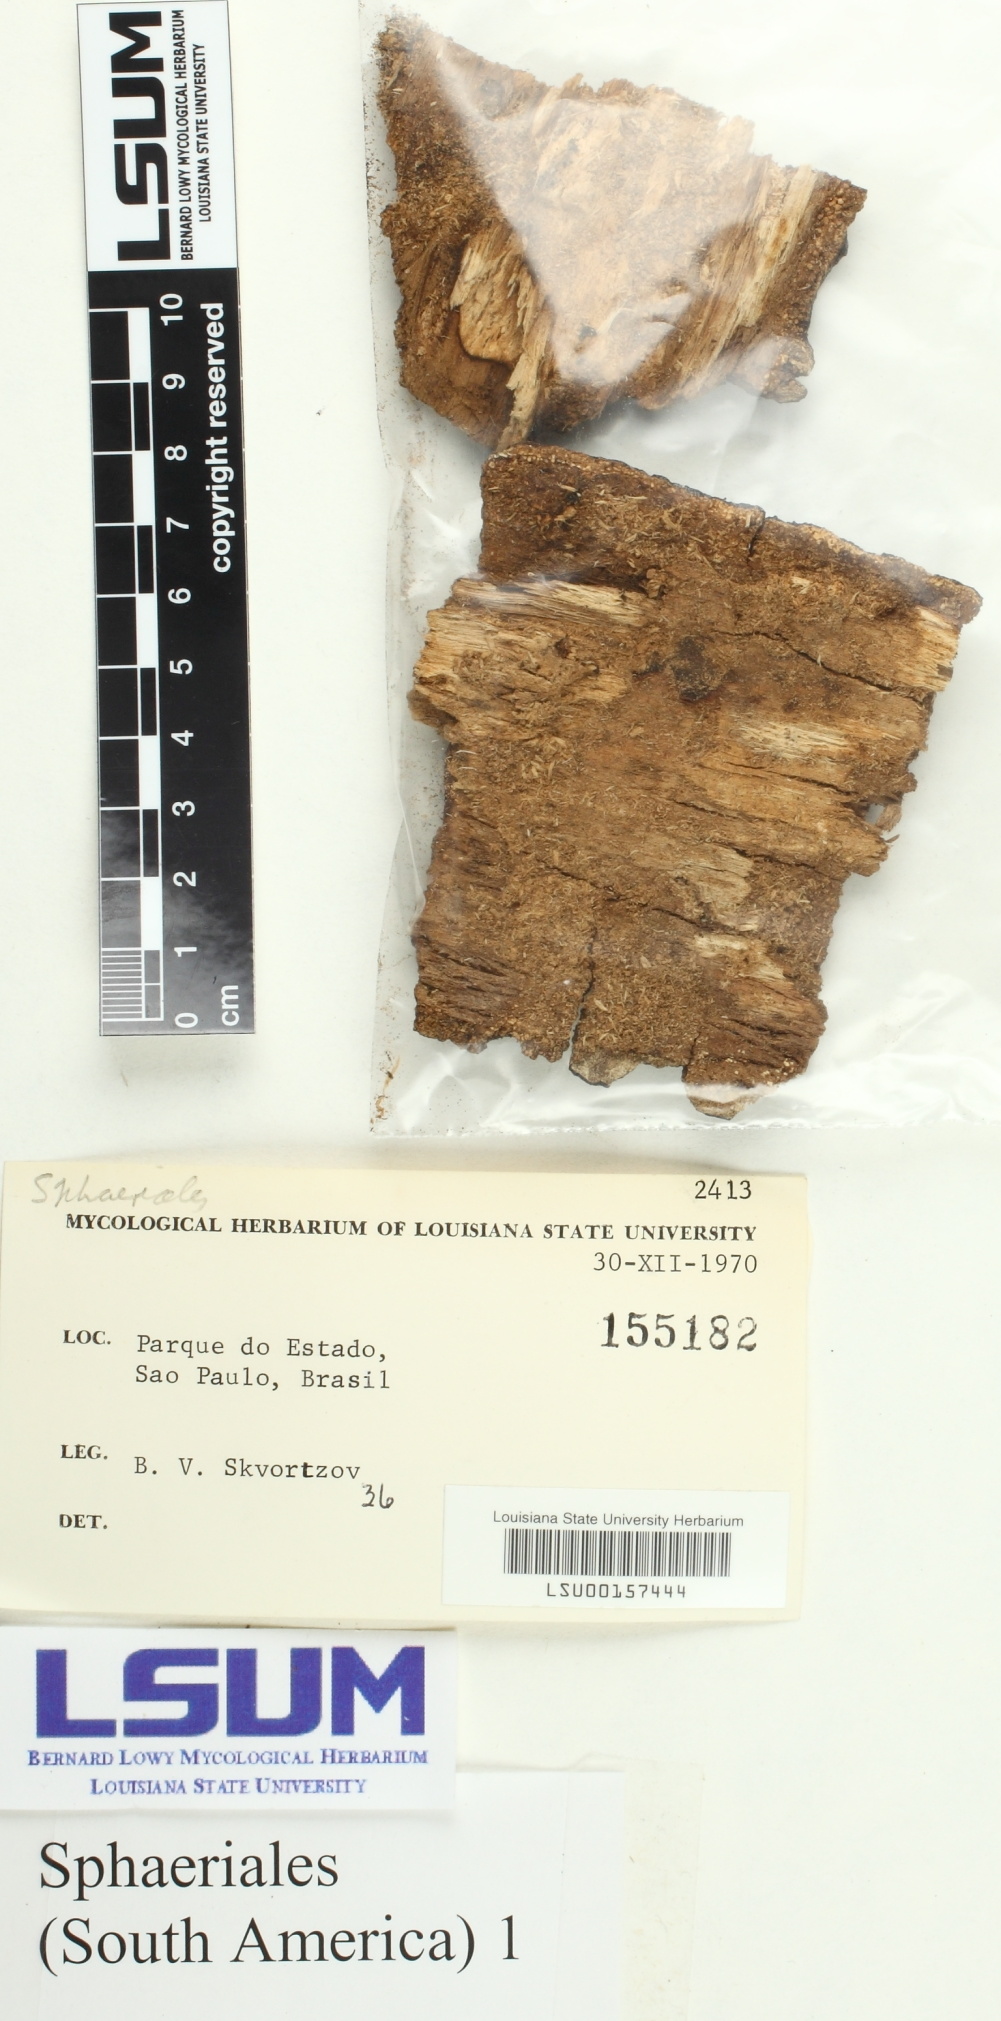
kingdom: Fungi
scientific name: Fungi
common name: Fungi
